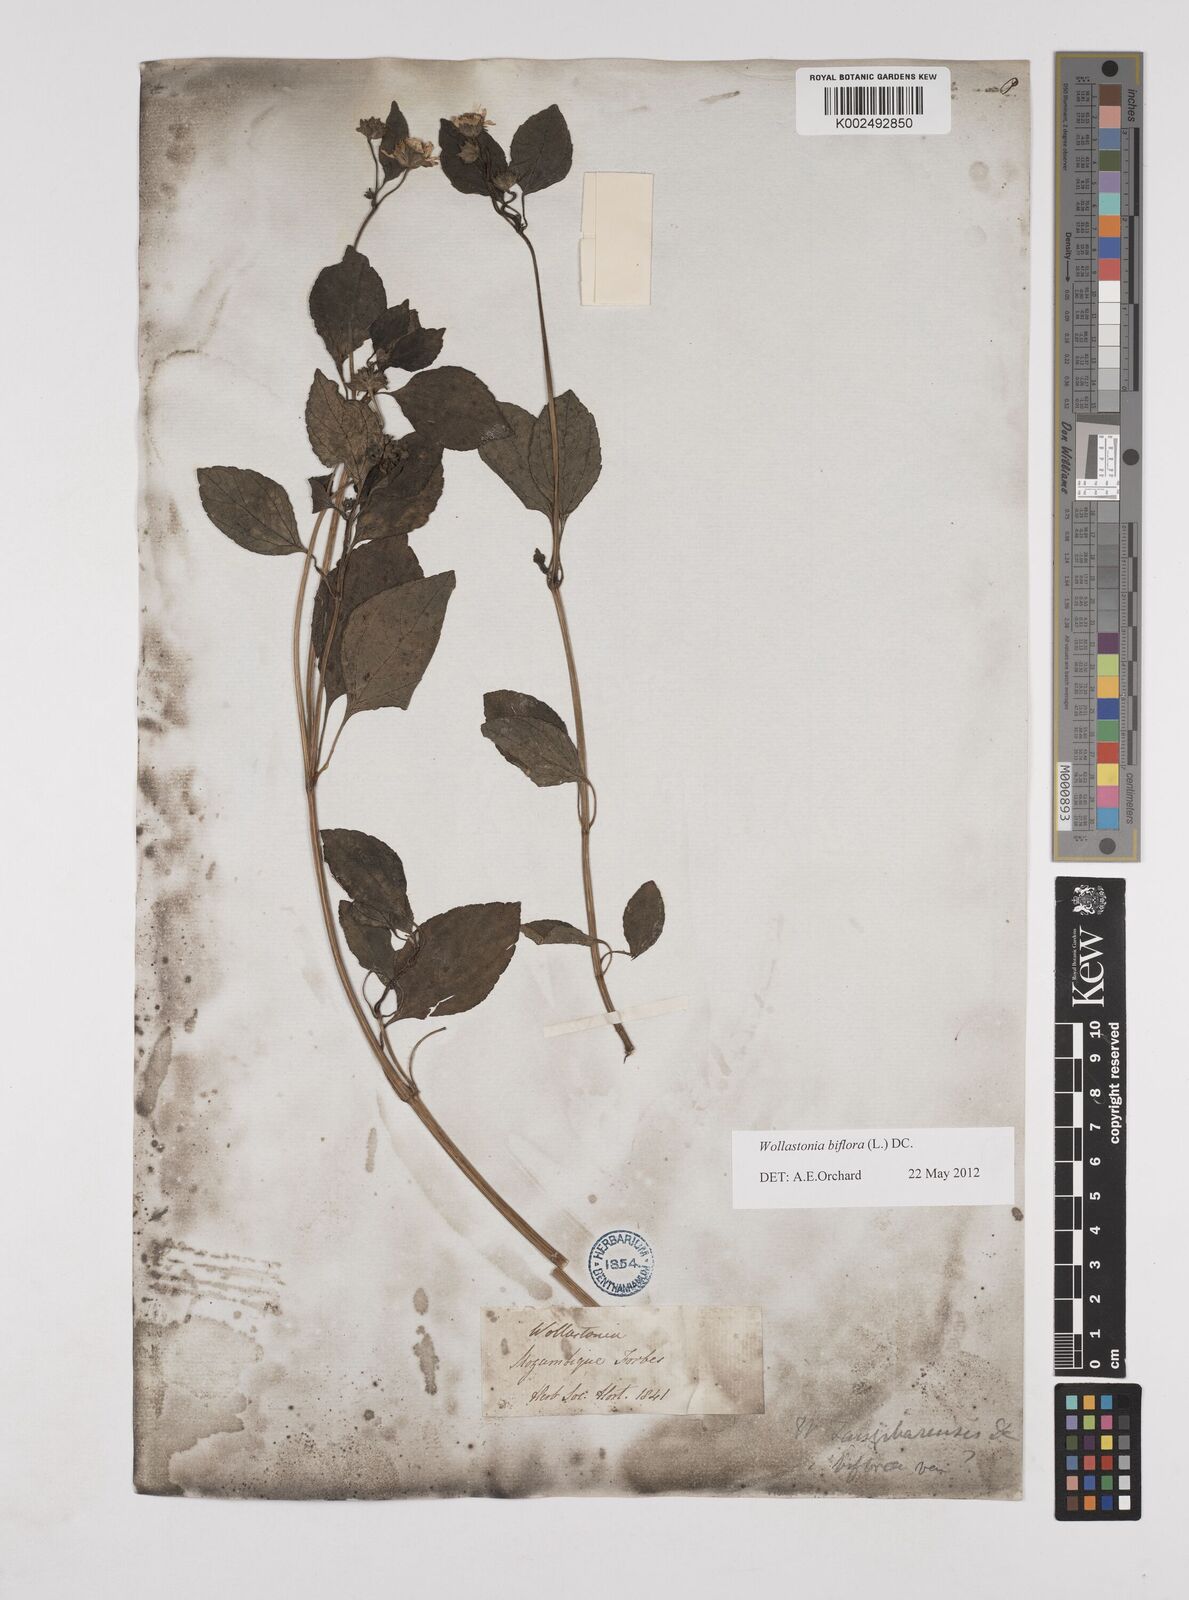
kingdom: Plantae
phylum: Tracheophyta
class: Magnoliopsida
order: Asterales
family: Asteraceae
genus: Wollastonia
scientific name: Wollastonia biflora
